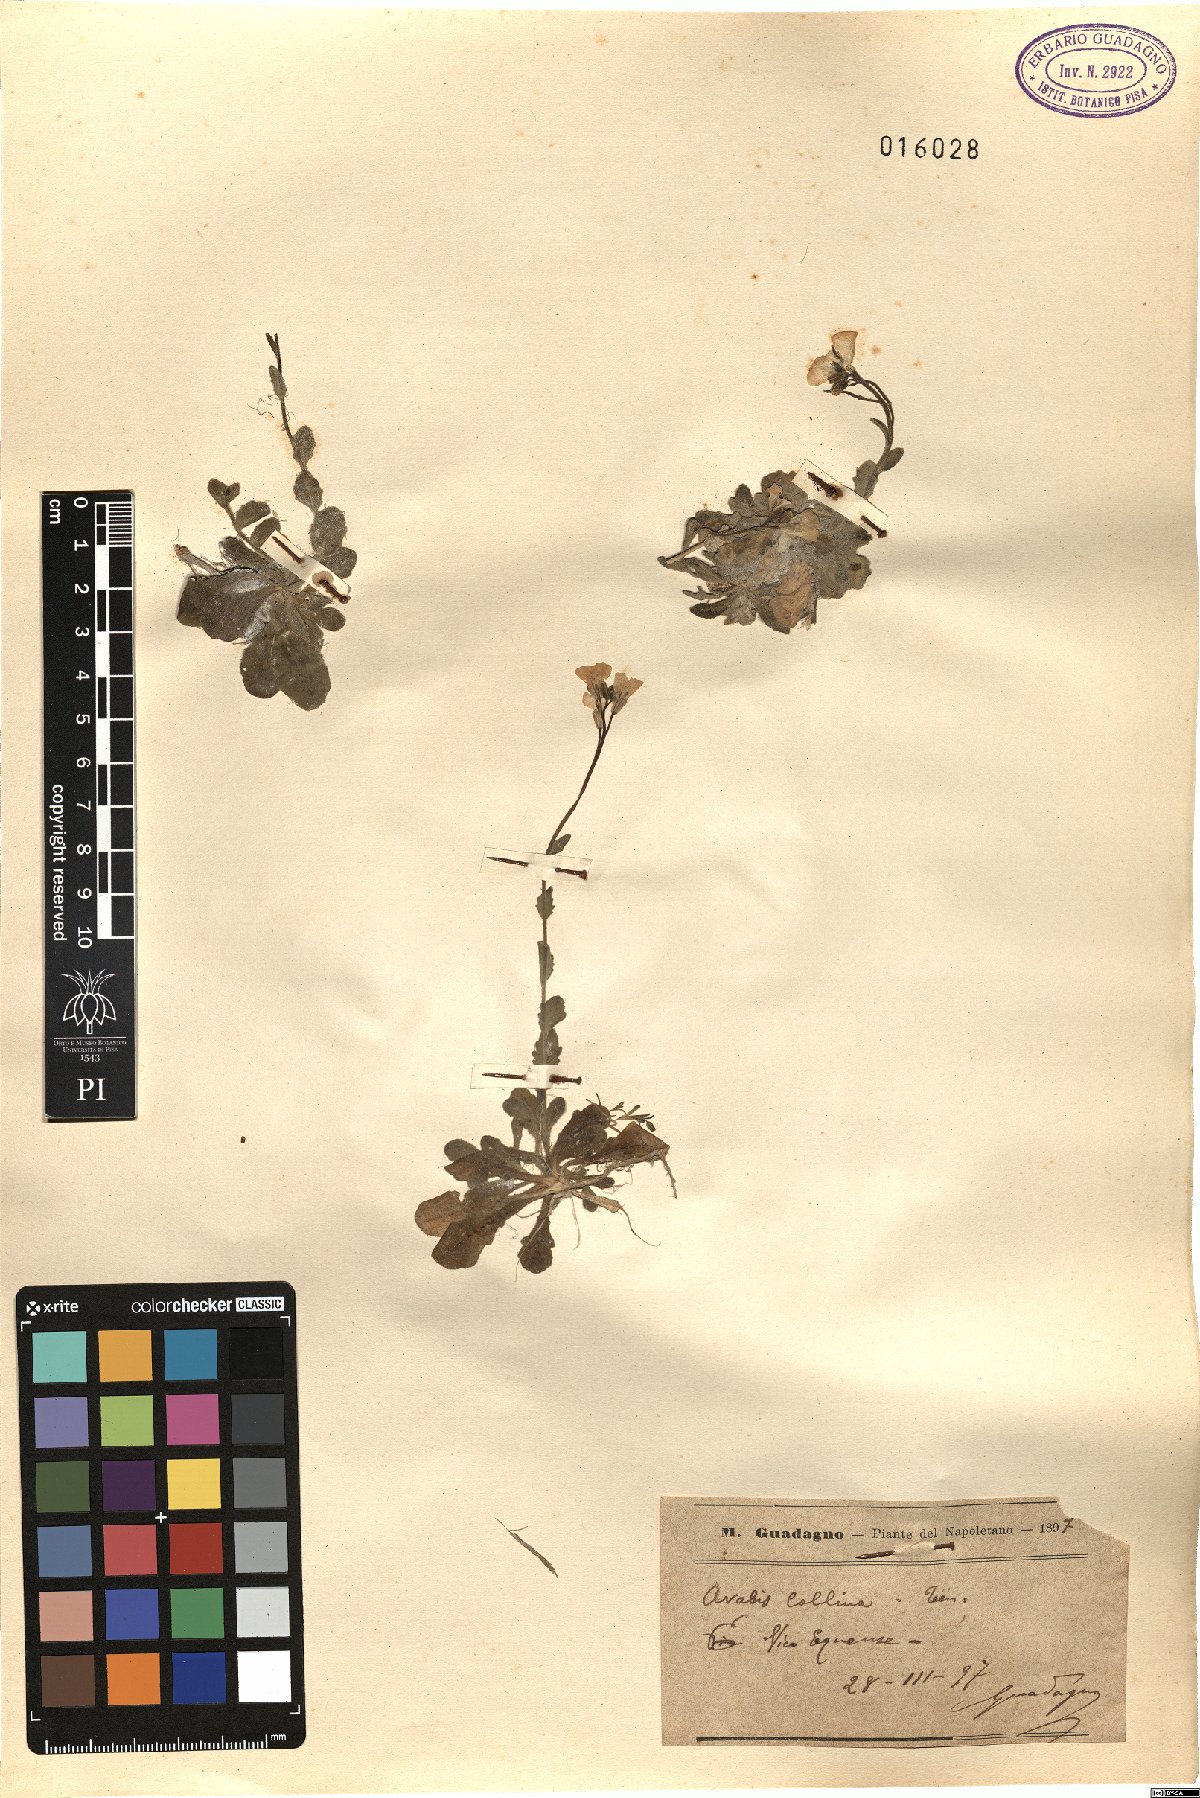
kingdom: Plantae
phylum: Tracheophyta
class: Magnoliopsida
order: Brassicales
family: Brassicaceae
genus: Arabis
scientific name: Arabis collina
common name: Rosy cress
